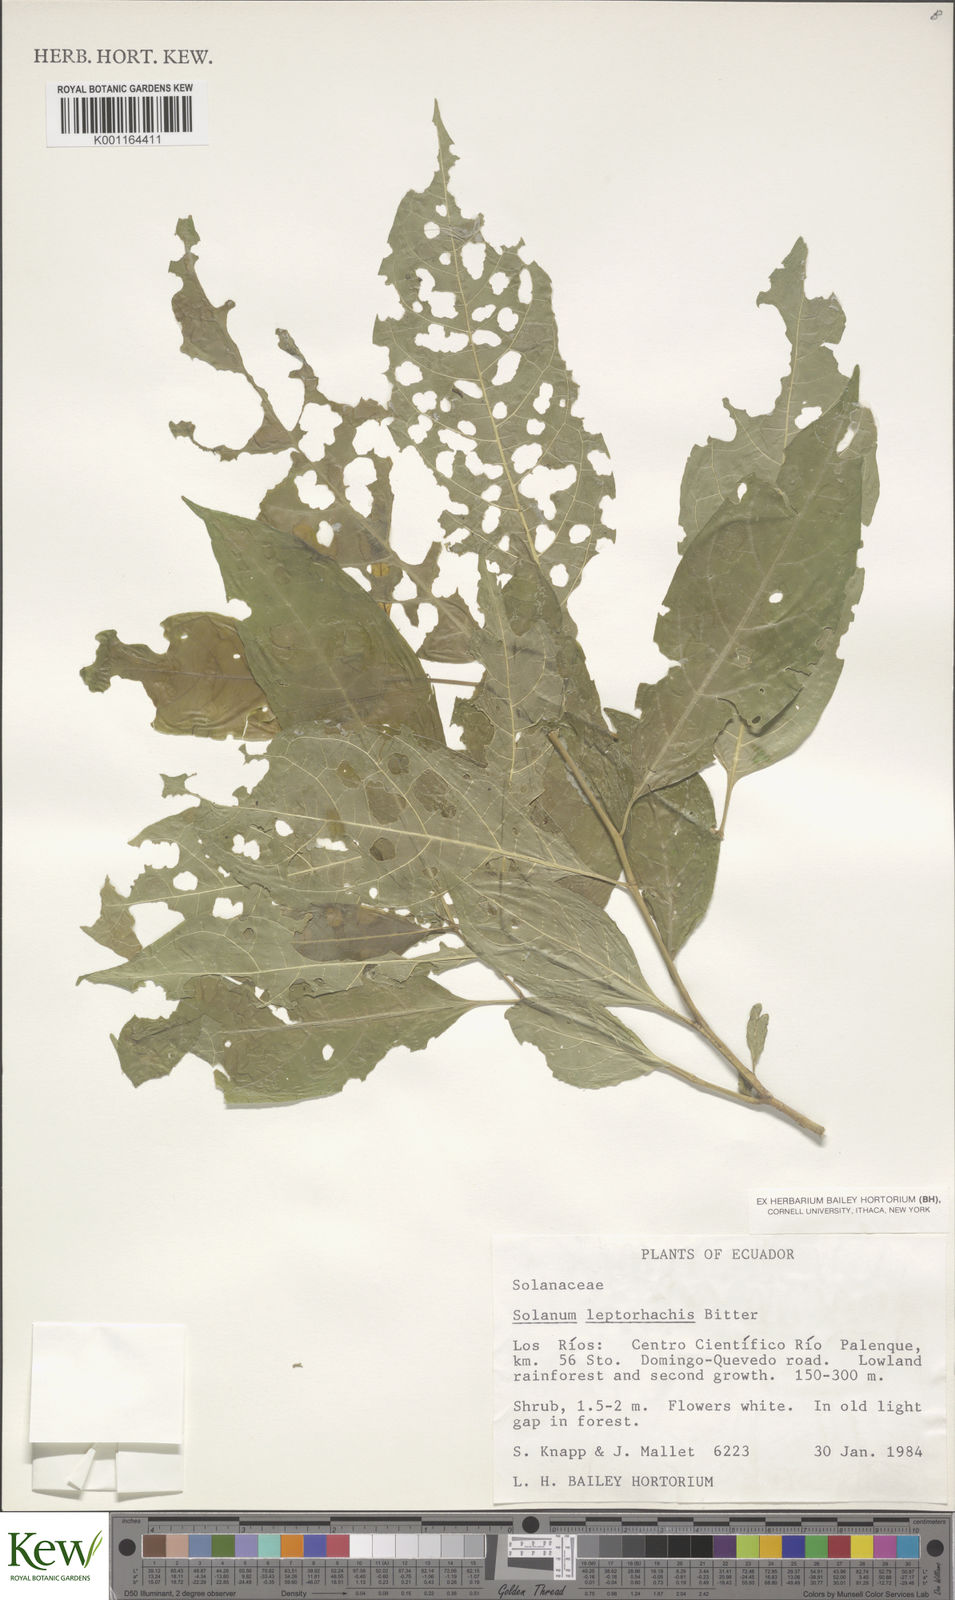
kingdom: Plantae
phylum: Tracheophyta
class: Magnoliopsida
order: Solanales
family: Solanaceae
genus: Solanum
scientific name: Solanum leptorhachis
